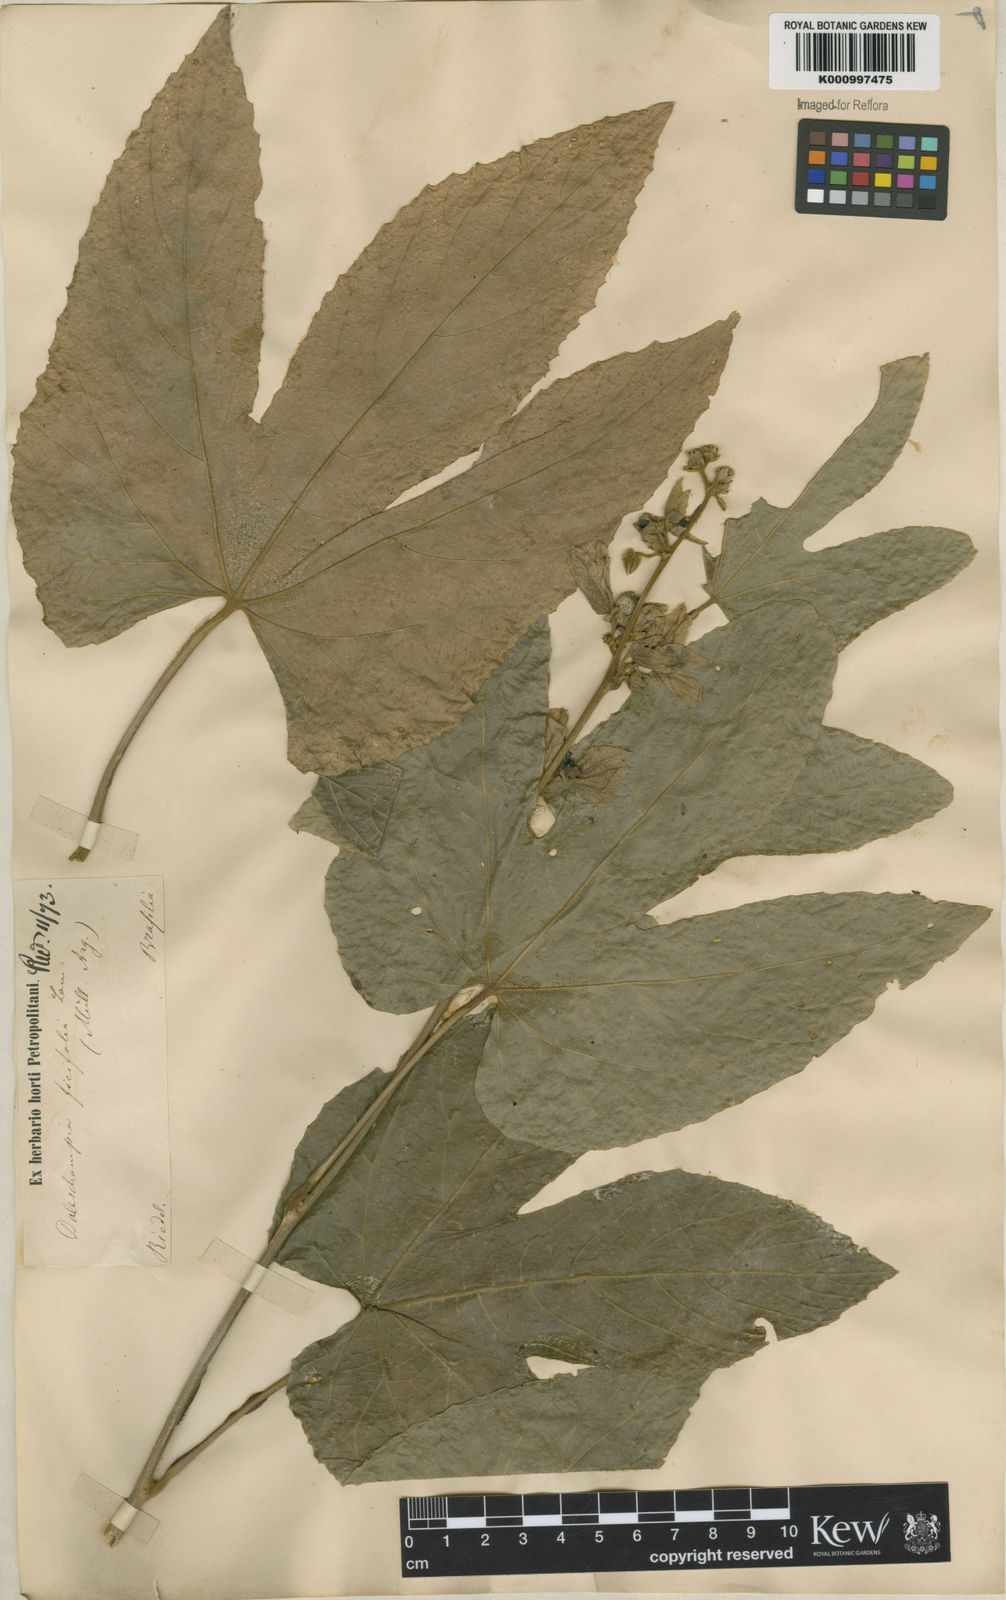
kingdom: Plantae
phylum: Tracheophyta
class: Magnoliopsida
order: Malpighiales
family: Euphorbiaceae
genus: Dalechampia
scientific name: Dalechampia ficifolia
